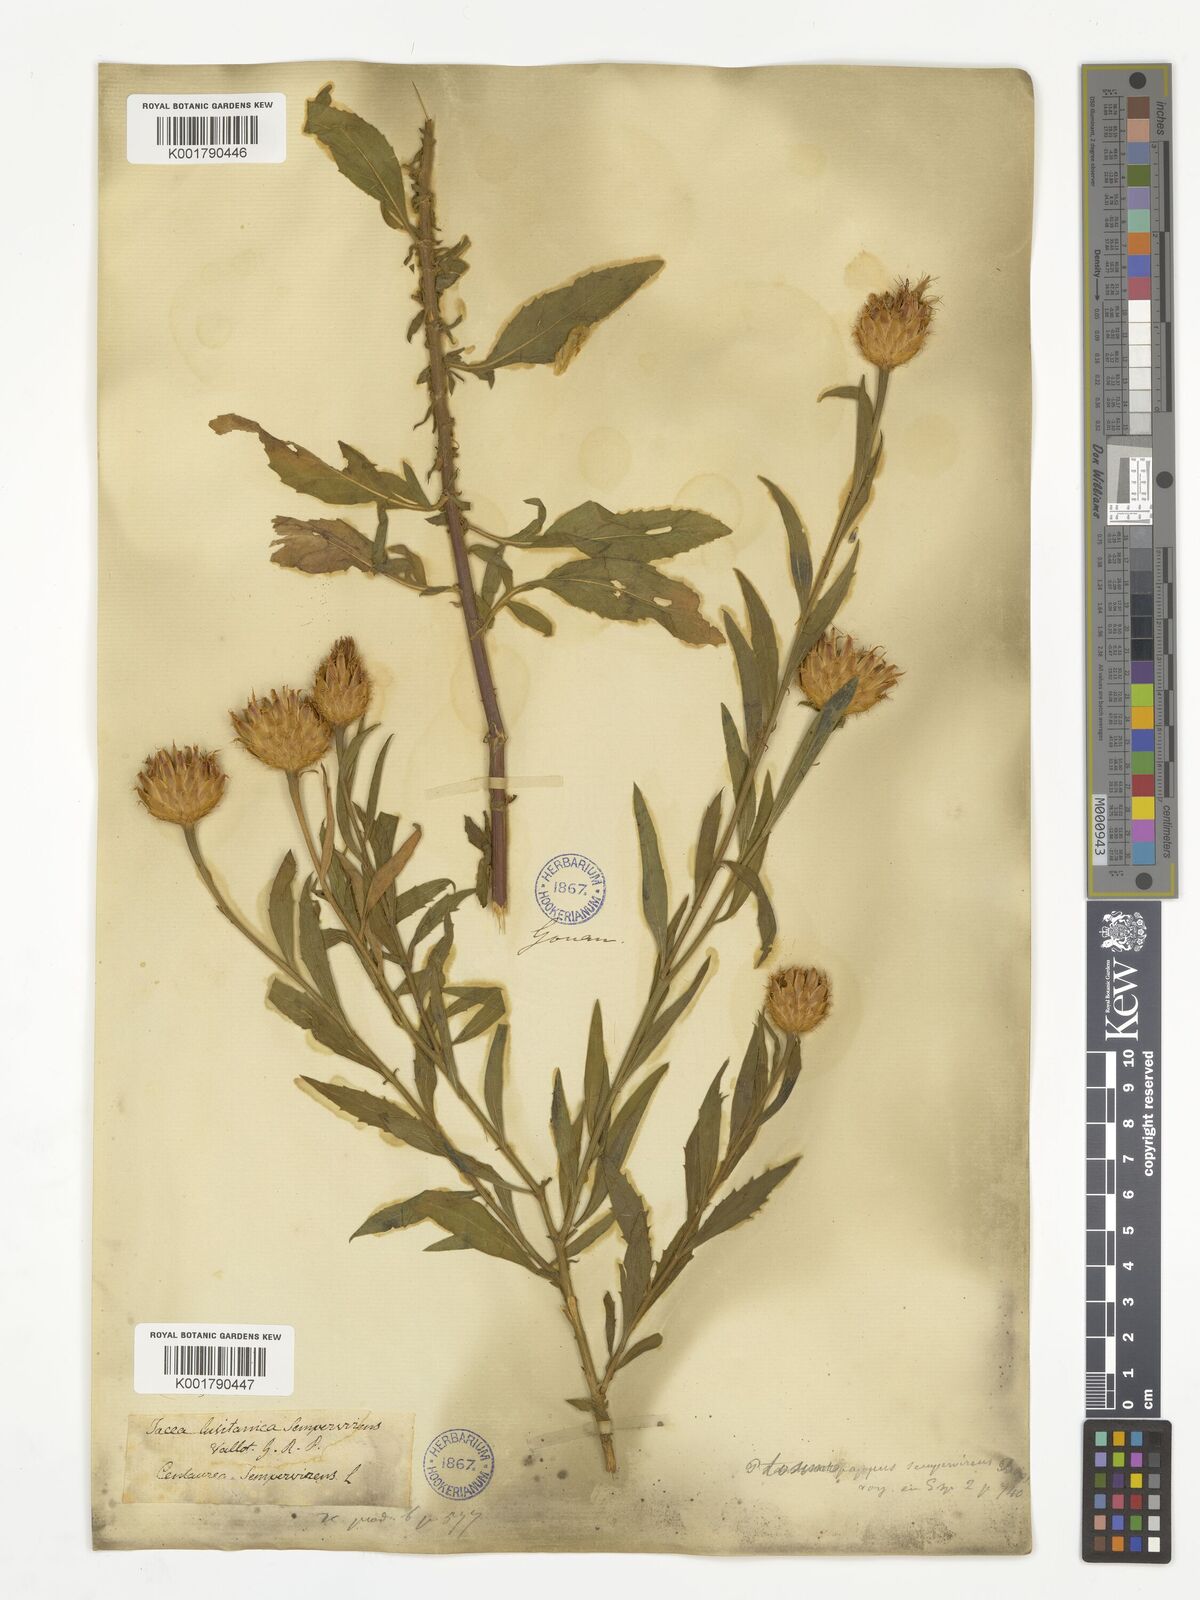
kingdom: Plantae
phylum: Tracheophyta
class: Magnoliopsida
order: Asterales
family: Asteraceae
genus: Cheirolophus
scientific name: Cheirolophus sempervirens
